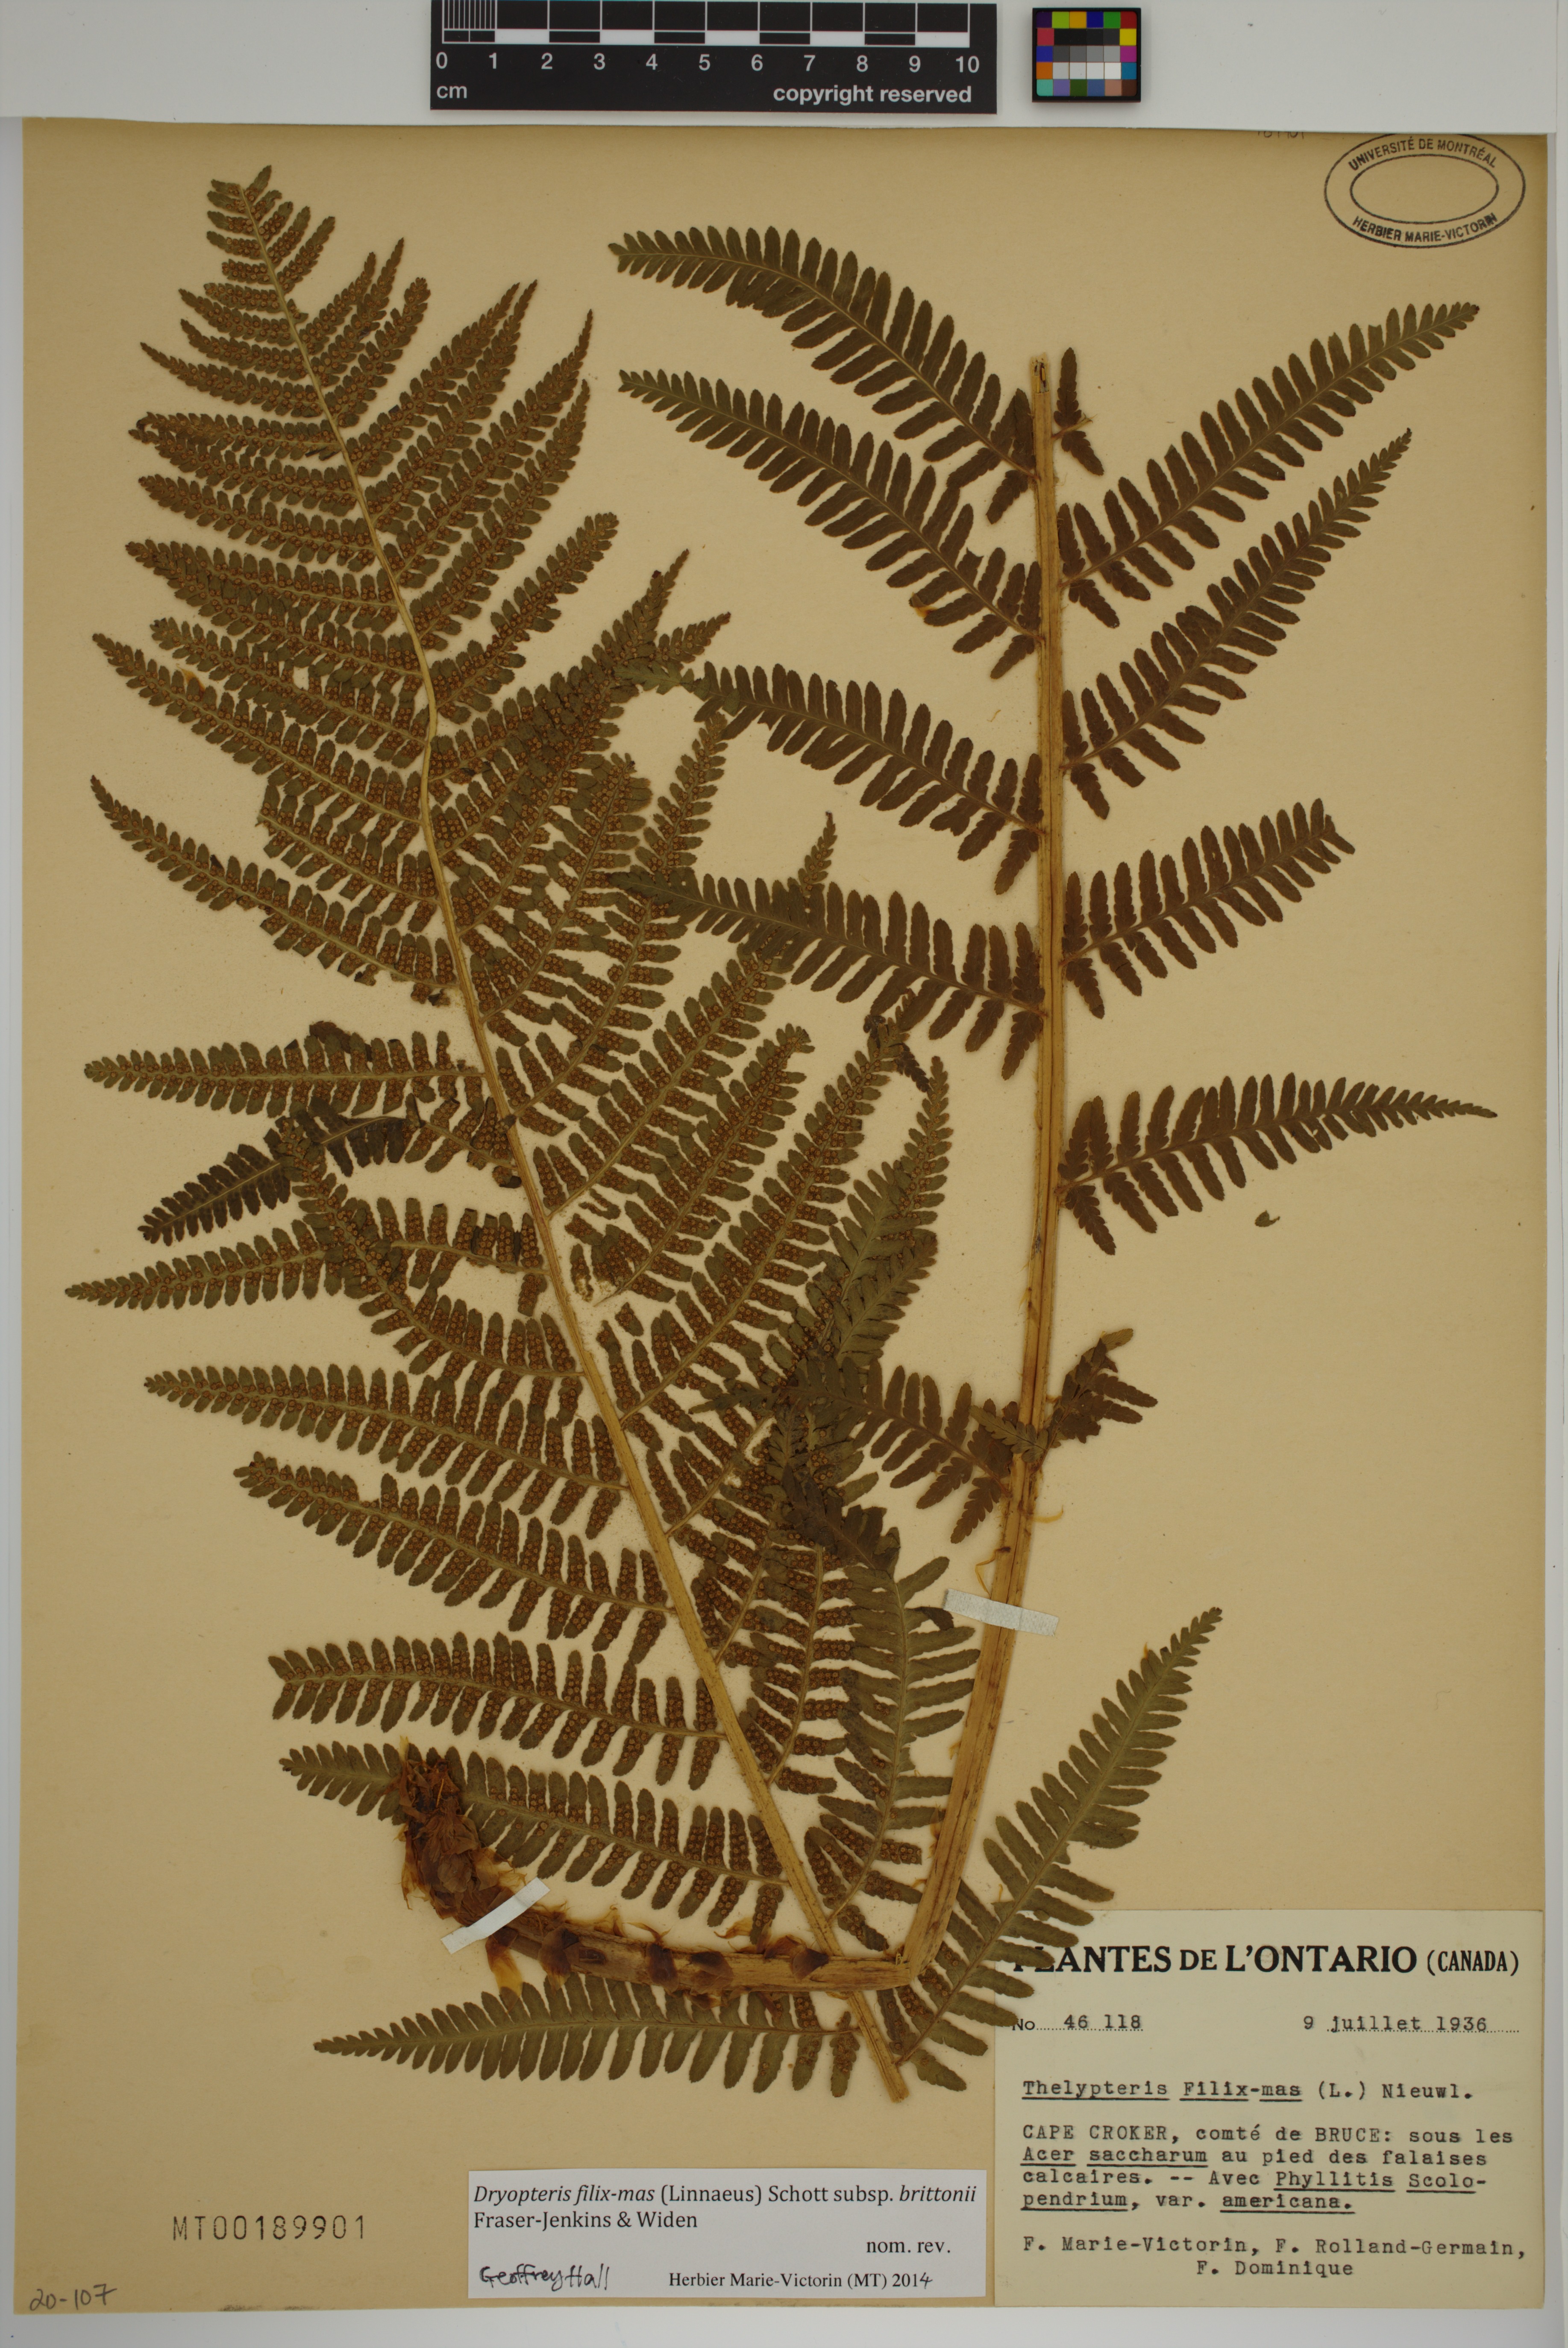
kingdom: Plantae
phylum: Tracheophyta
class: Polypodiopsida
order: Polypodiales
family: Dryopteridaceae
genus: Dryopteris
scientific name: Dryopteris filix-mas
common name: Male fern
